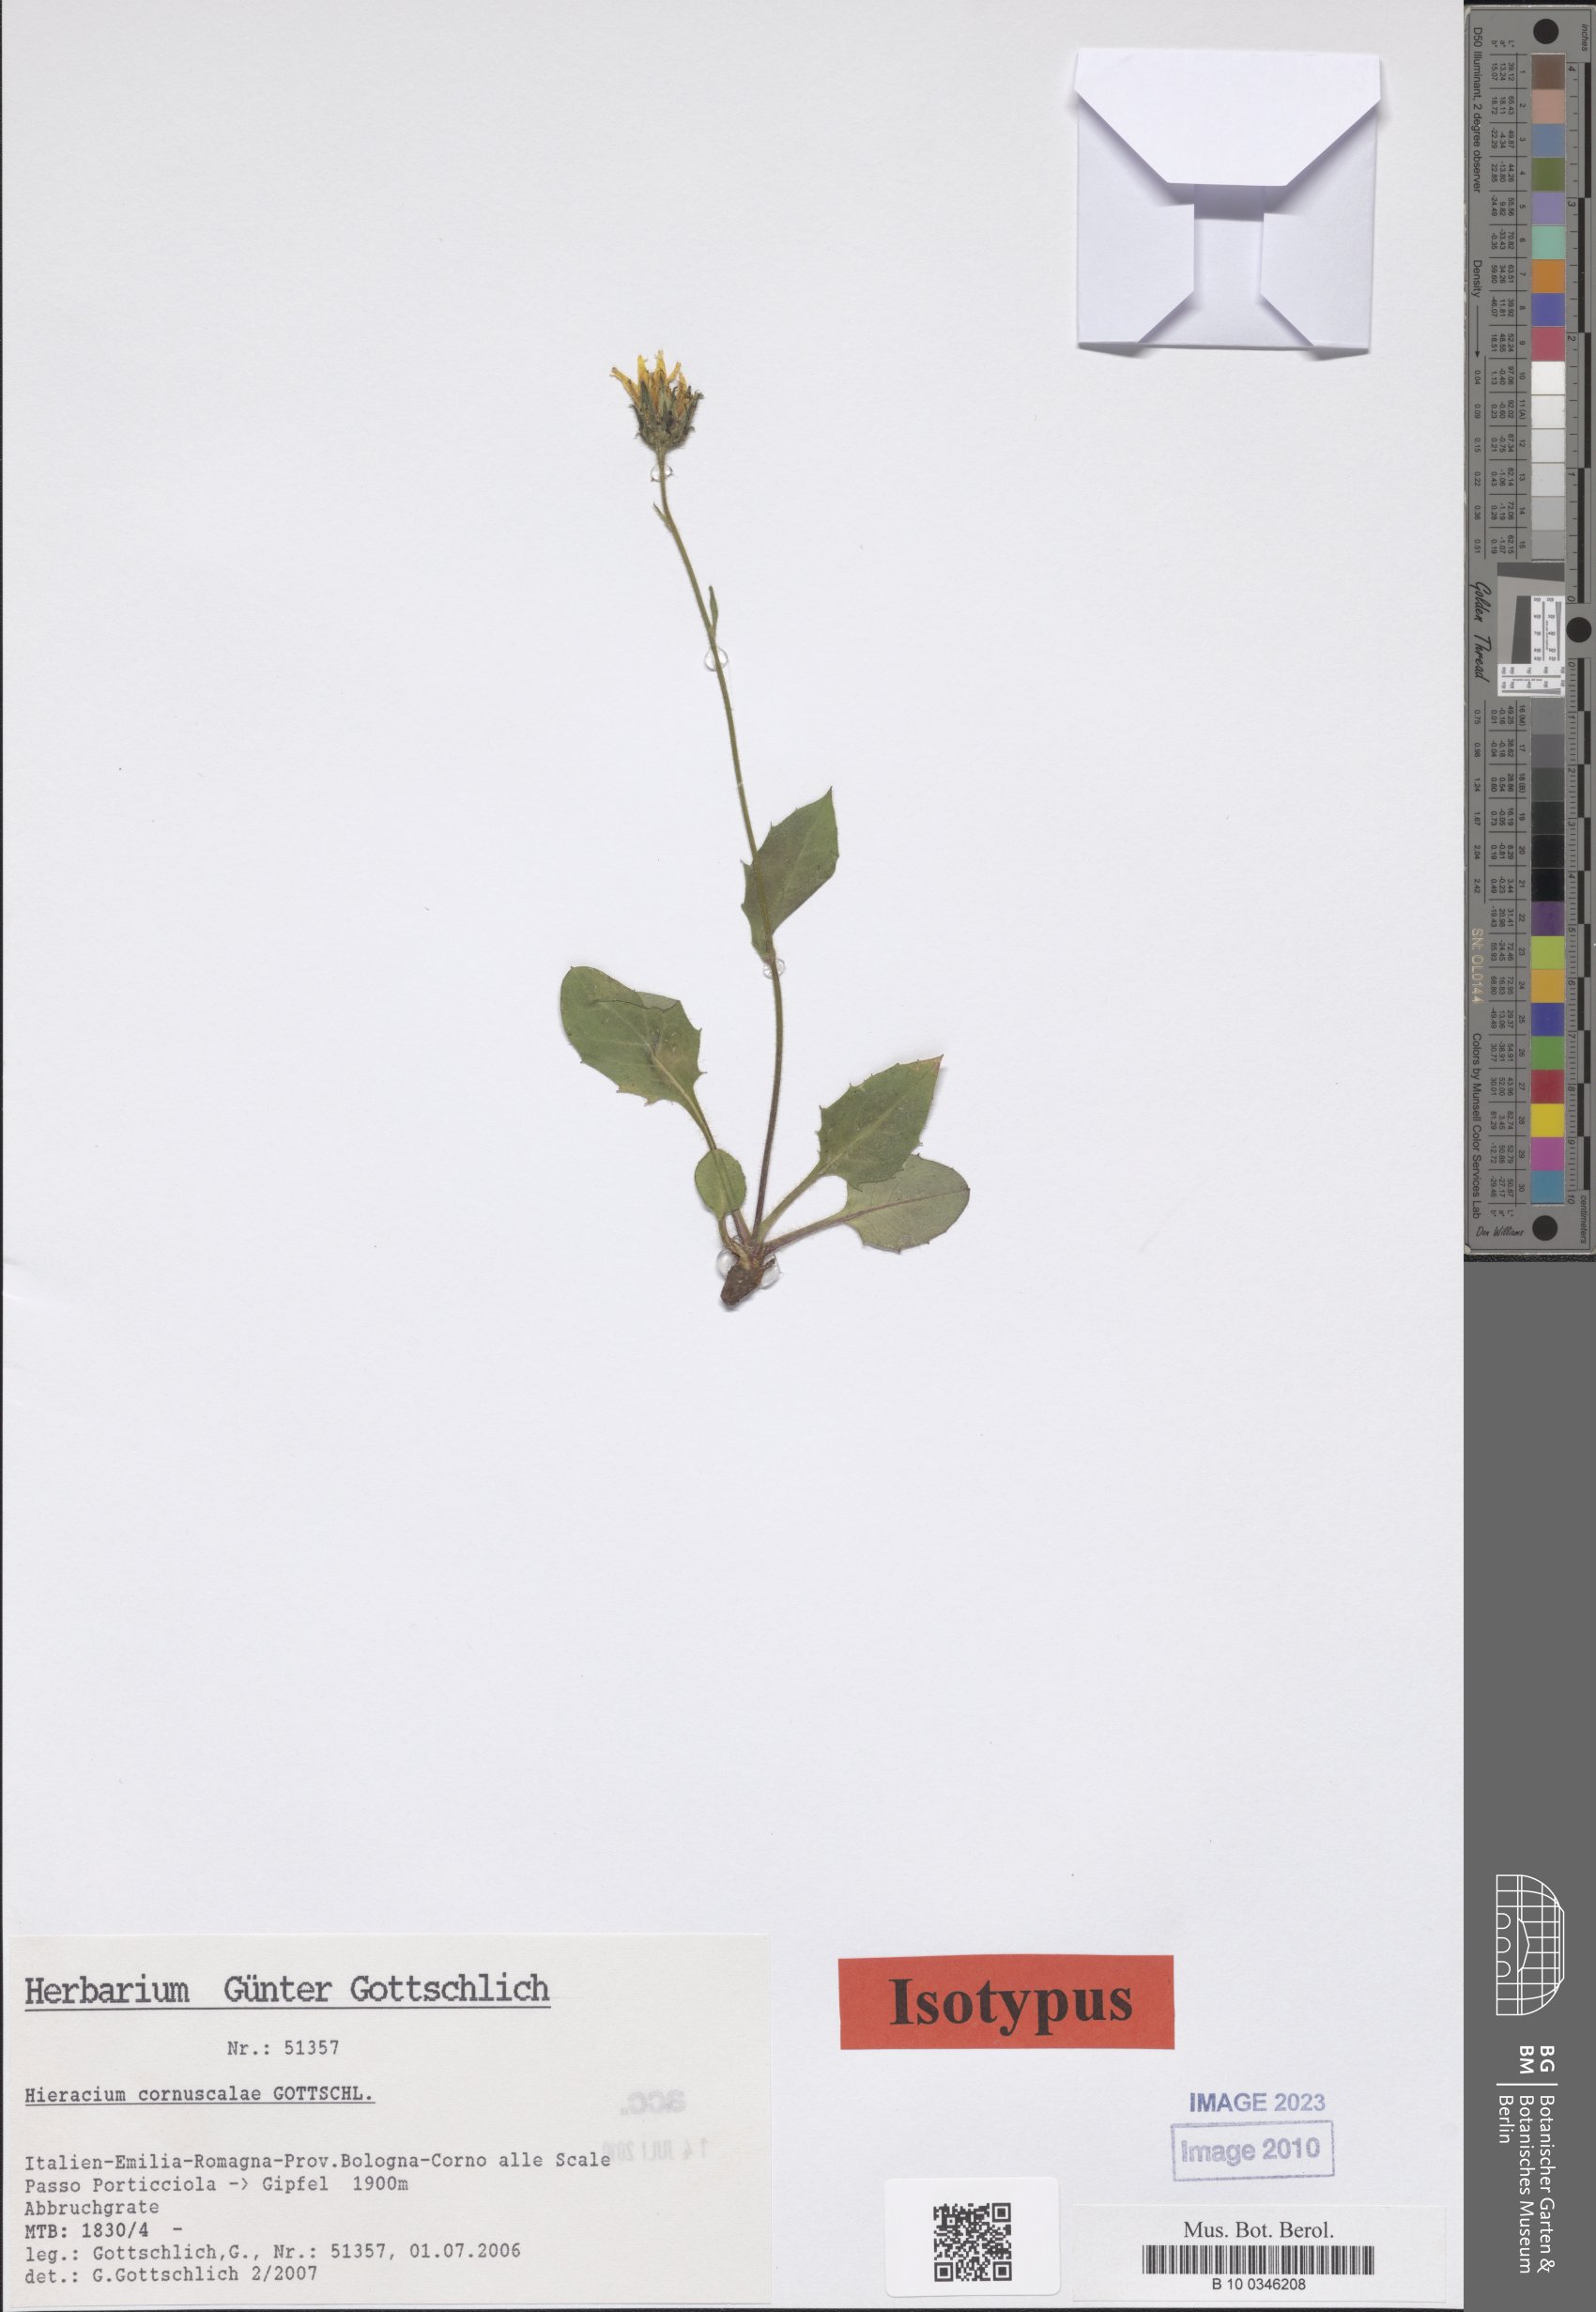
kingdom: Plantae
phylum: Tracheophyta
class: Magnoliopsida
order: Asterales
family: Asteraceae
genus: Hieracium
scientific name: Hieracium cornuscalae
